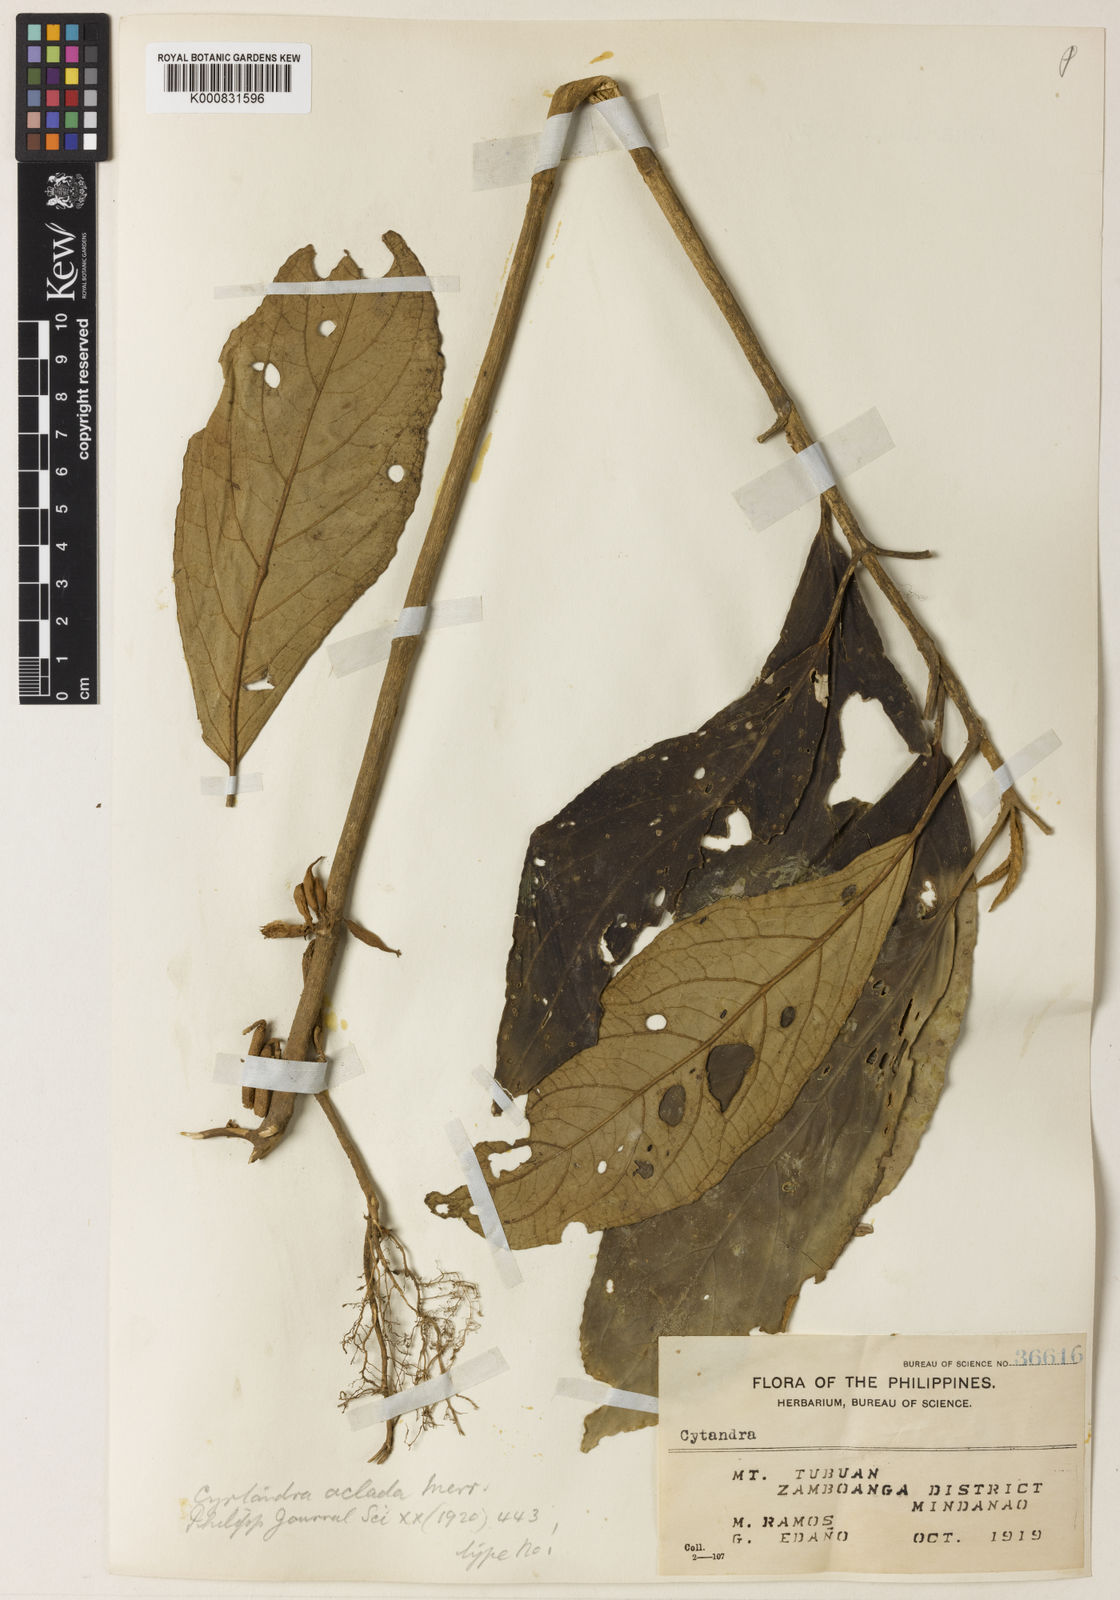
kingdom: Plantae
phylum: Tracheophyta
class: Magnoliopsida
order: Lamiales
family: Gesneriaceae
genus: Cyrtandra
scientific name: Cyrtandra aclada
